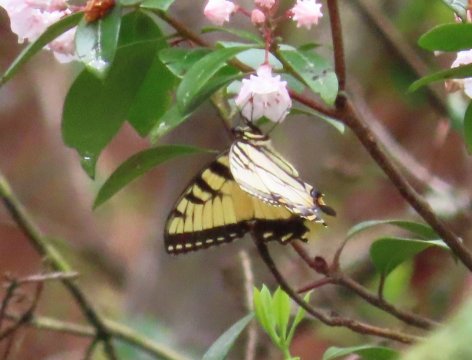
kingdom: Animalia
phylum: Arthropoda
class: Insecta
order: Lepidoptera
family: Papilionidae
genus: Pterourus
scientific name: Pterourus glaucus
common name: Eastern Tiger Swallowtail
